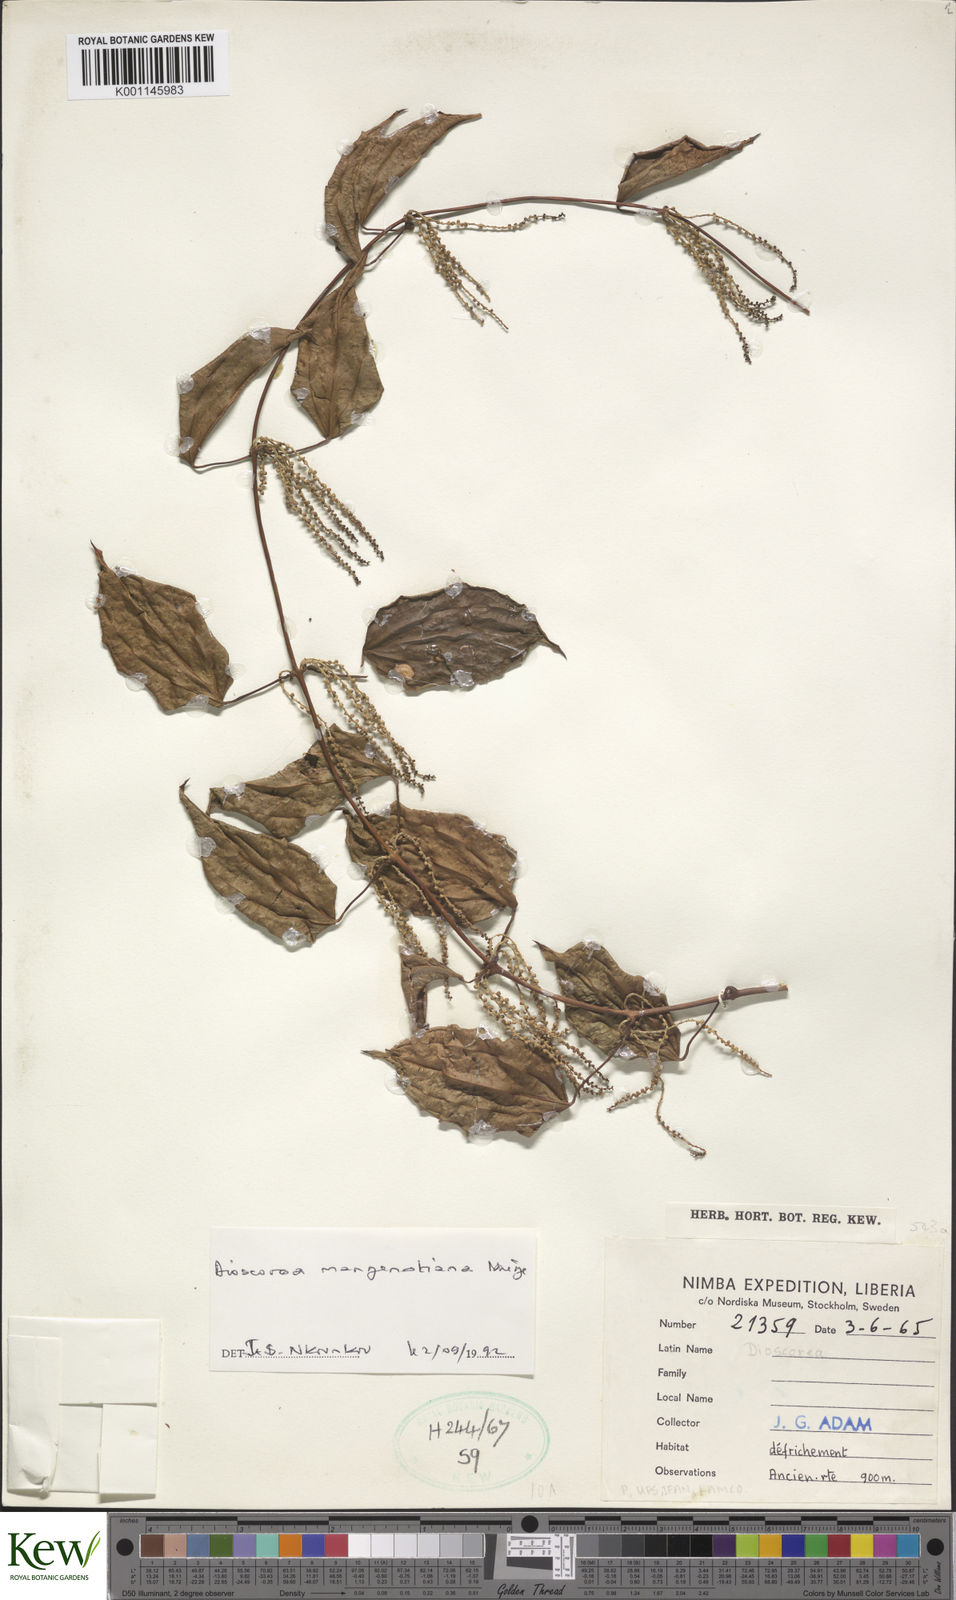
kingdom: Plantae
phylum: Tracheophyta
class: Liliopsida
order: Dioscoreales
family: Dioscoreaceae
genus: Dioscorea
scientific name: Dioscorea
